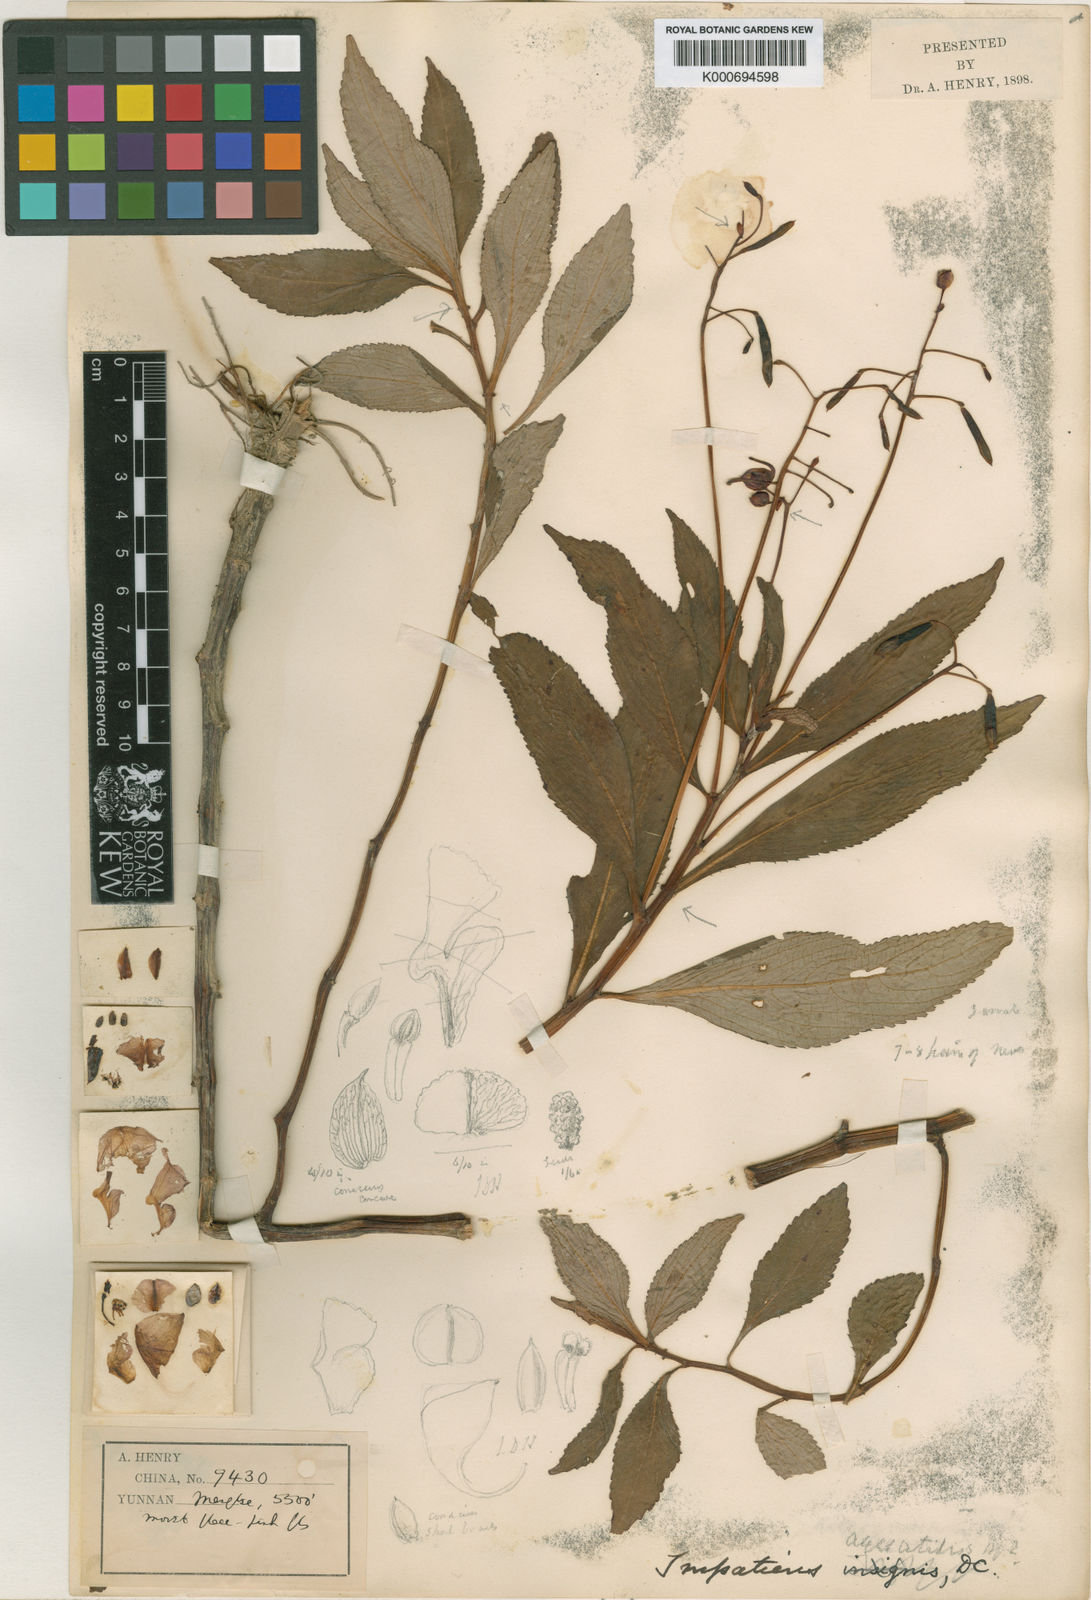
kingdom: Plantae
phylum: Tracheophyta
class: Magnoliopsida
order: Ericales
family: Balsaminaceae
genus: Impatiens
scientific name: Impatiens aquatilis
